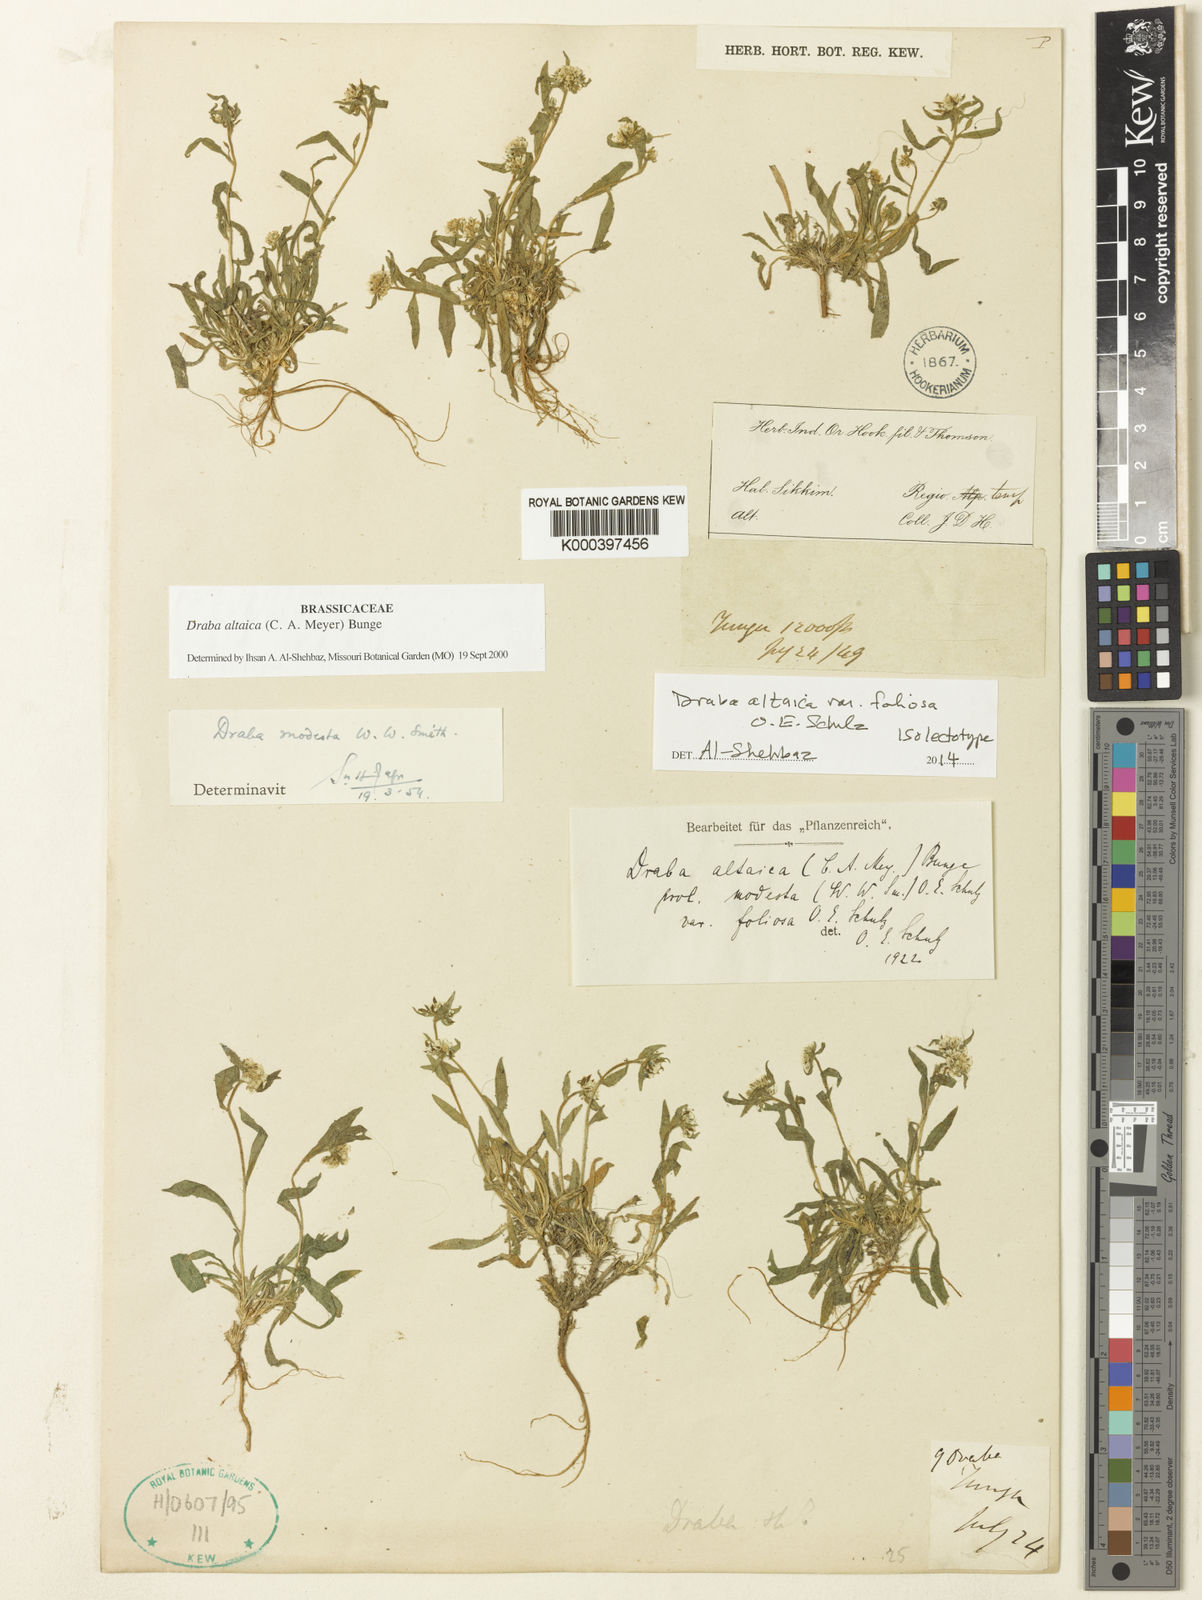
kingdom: Plantae
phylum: Tracheophyta
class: Magnoliopsida
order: Brassicales
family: Brassicaceae
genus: Draba
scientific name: Draba altaica
